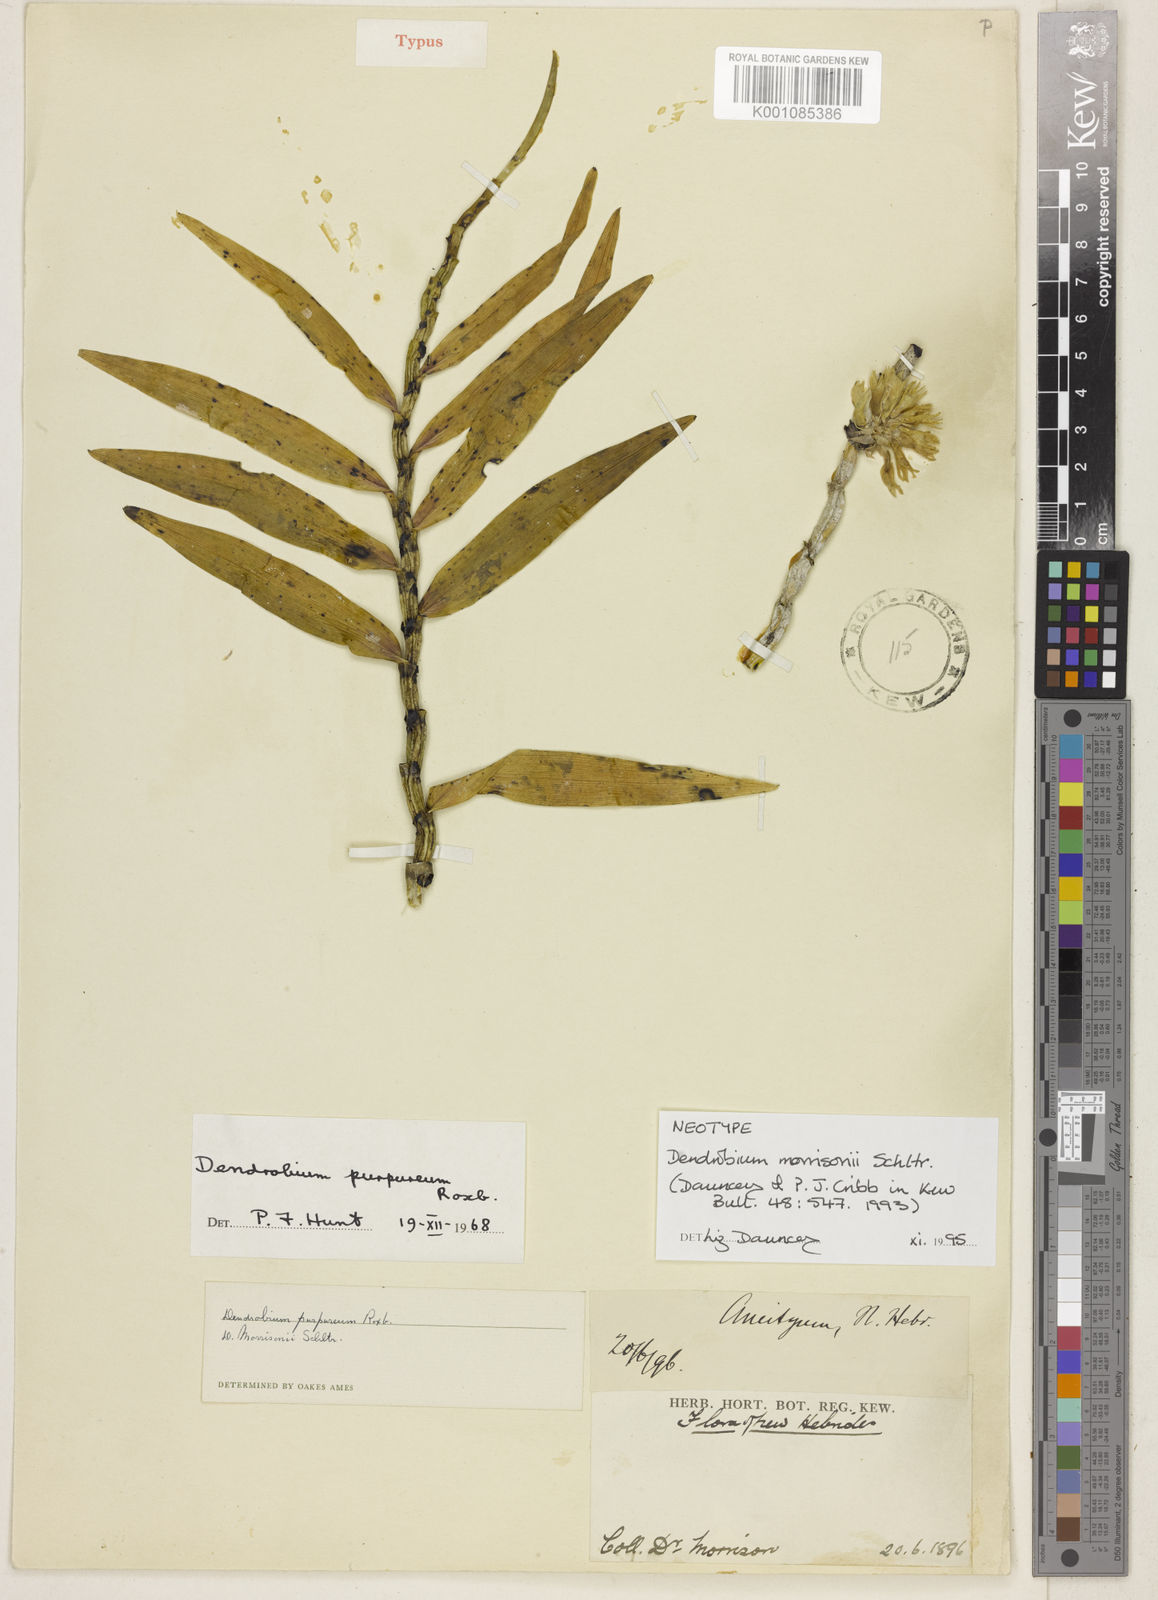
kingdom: Plantae
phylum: Tracheophyta
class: Liliopsida
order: Asparagales
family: Orchidaceae
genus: Dendrobium
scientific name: Dendrobium morrisonii
